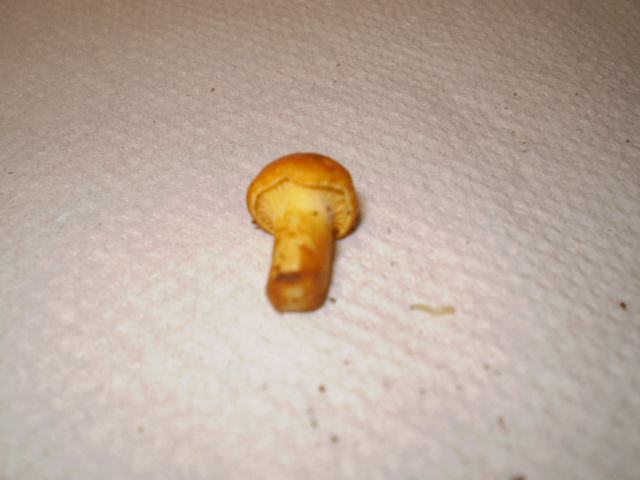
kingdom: Fungi
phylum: Basidiomycota
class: Agaricomycetes
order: Cantharellales
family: Hydnaceae
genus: Cantharellus
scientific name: Cantharellus pallens
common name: bleg kantarel
